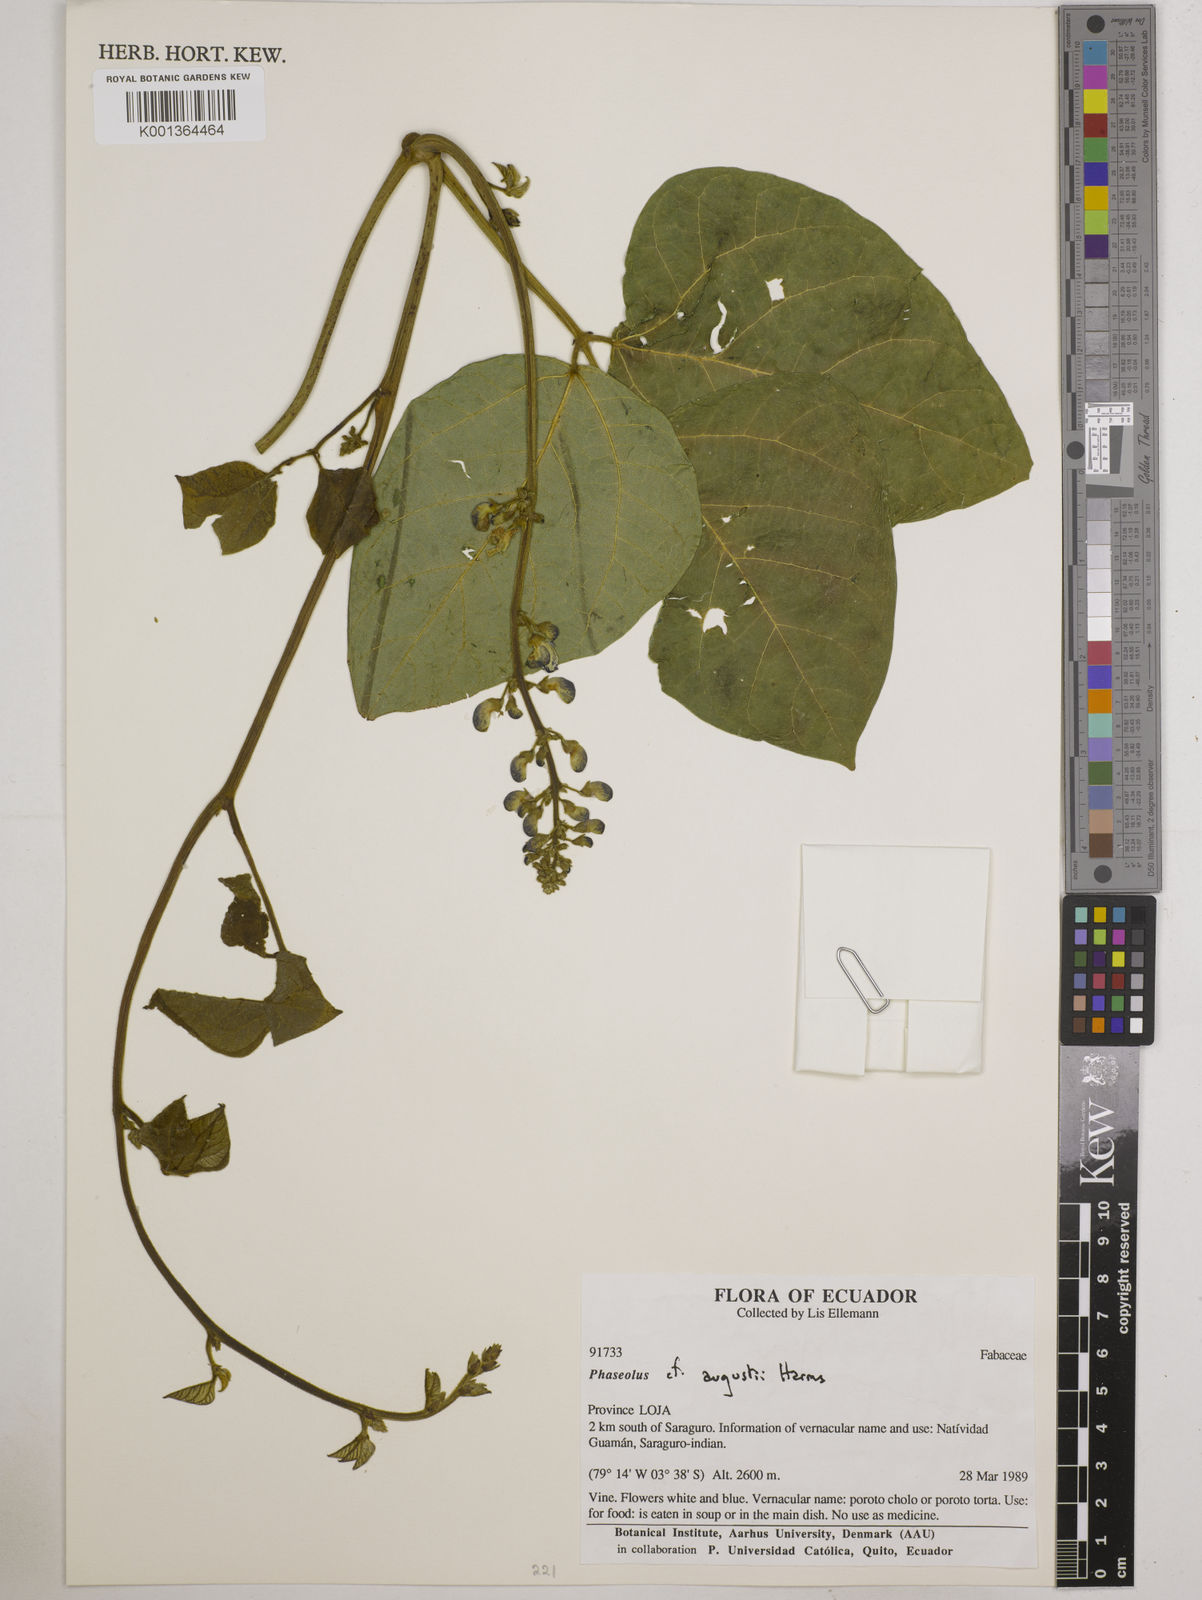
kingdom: Plantae
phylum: Tracheophyta
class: Magnoliopsida
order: Fabales
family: Fabaceae
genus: Phaseolus
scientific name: Phaseolus augusti
